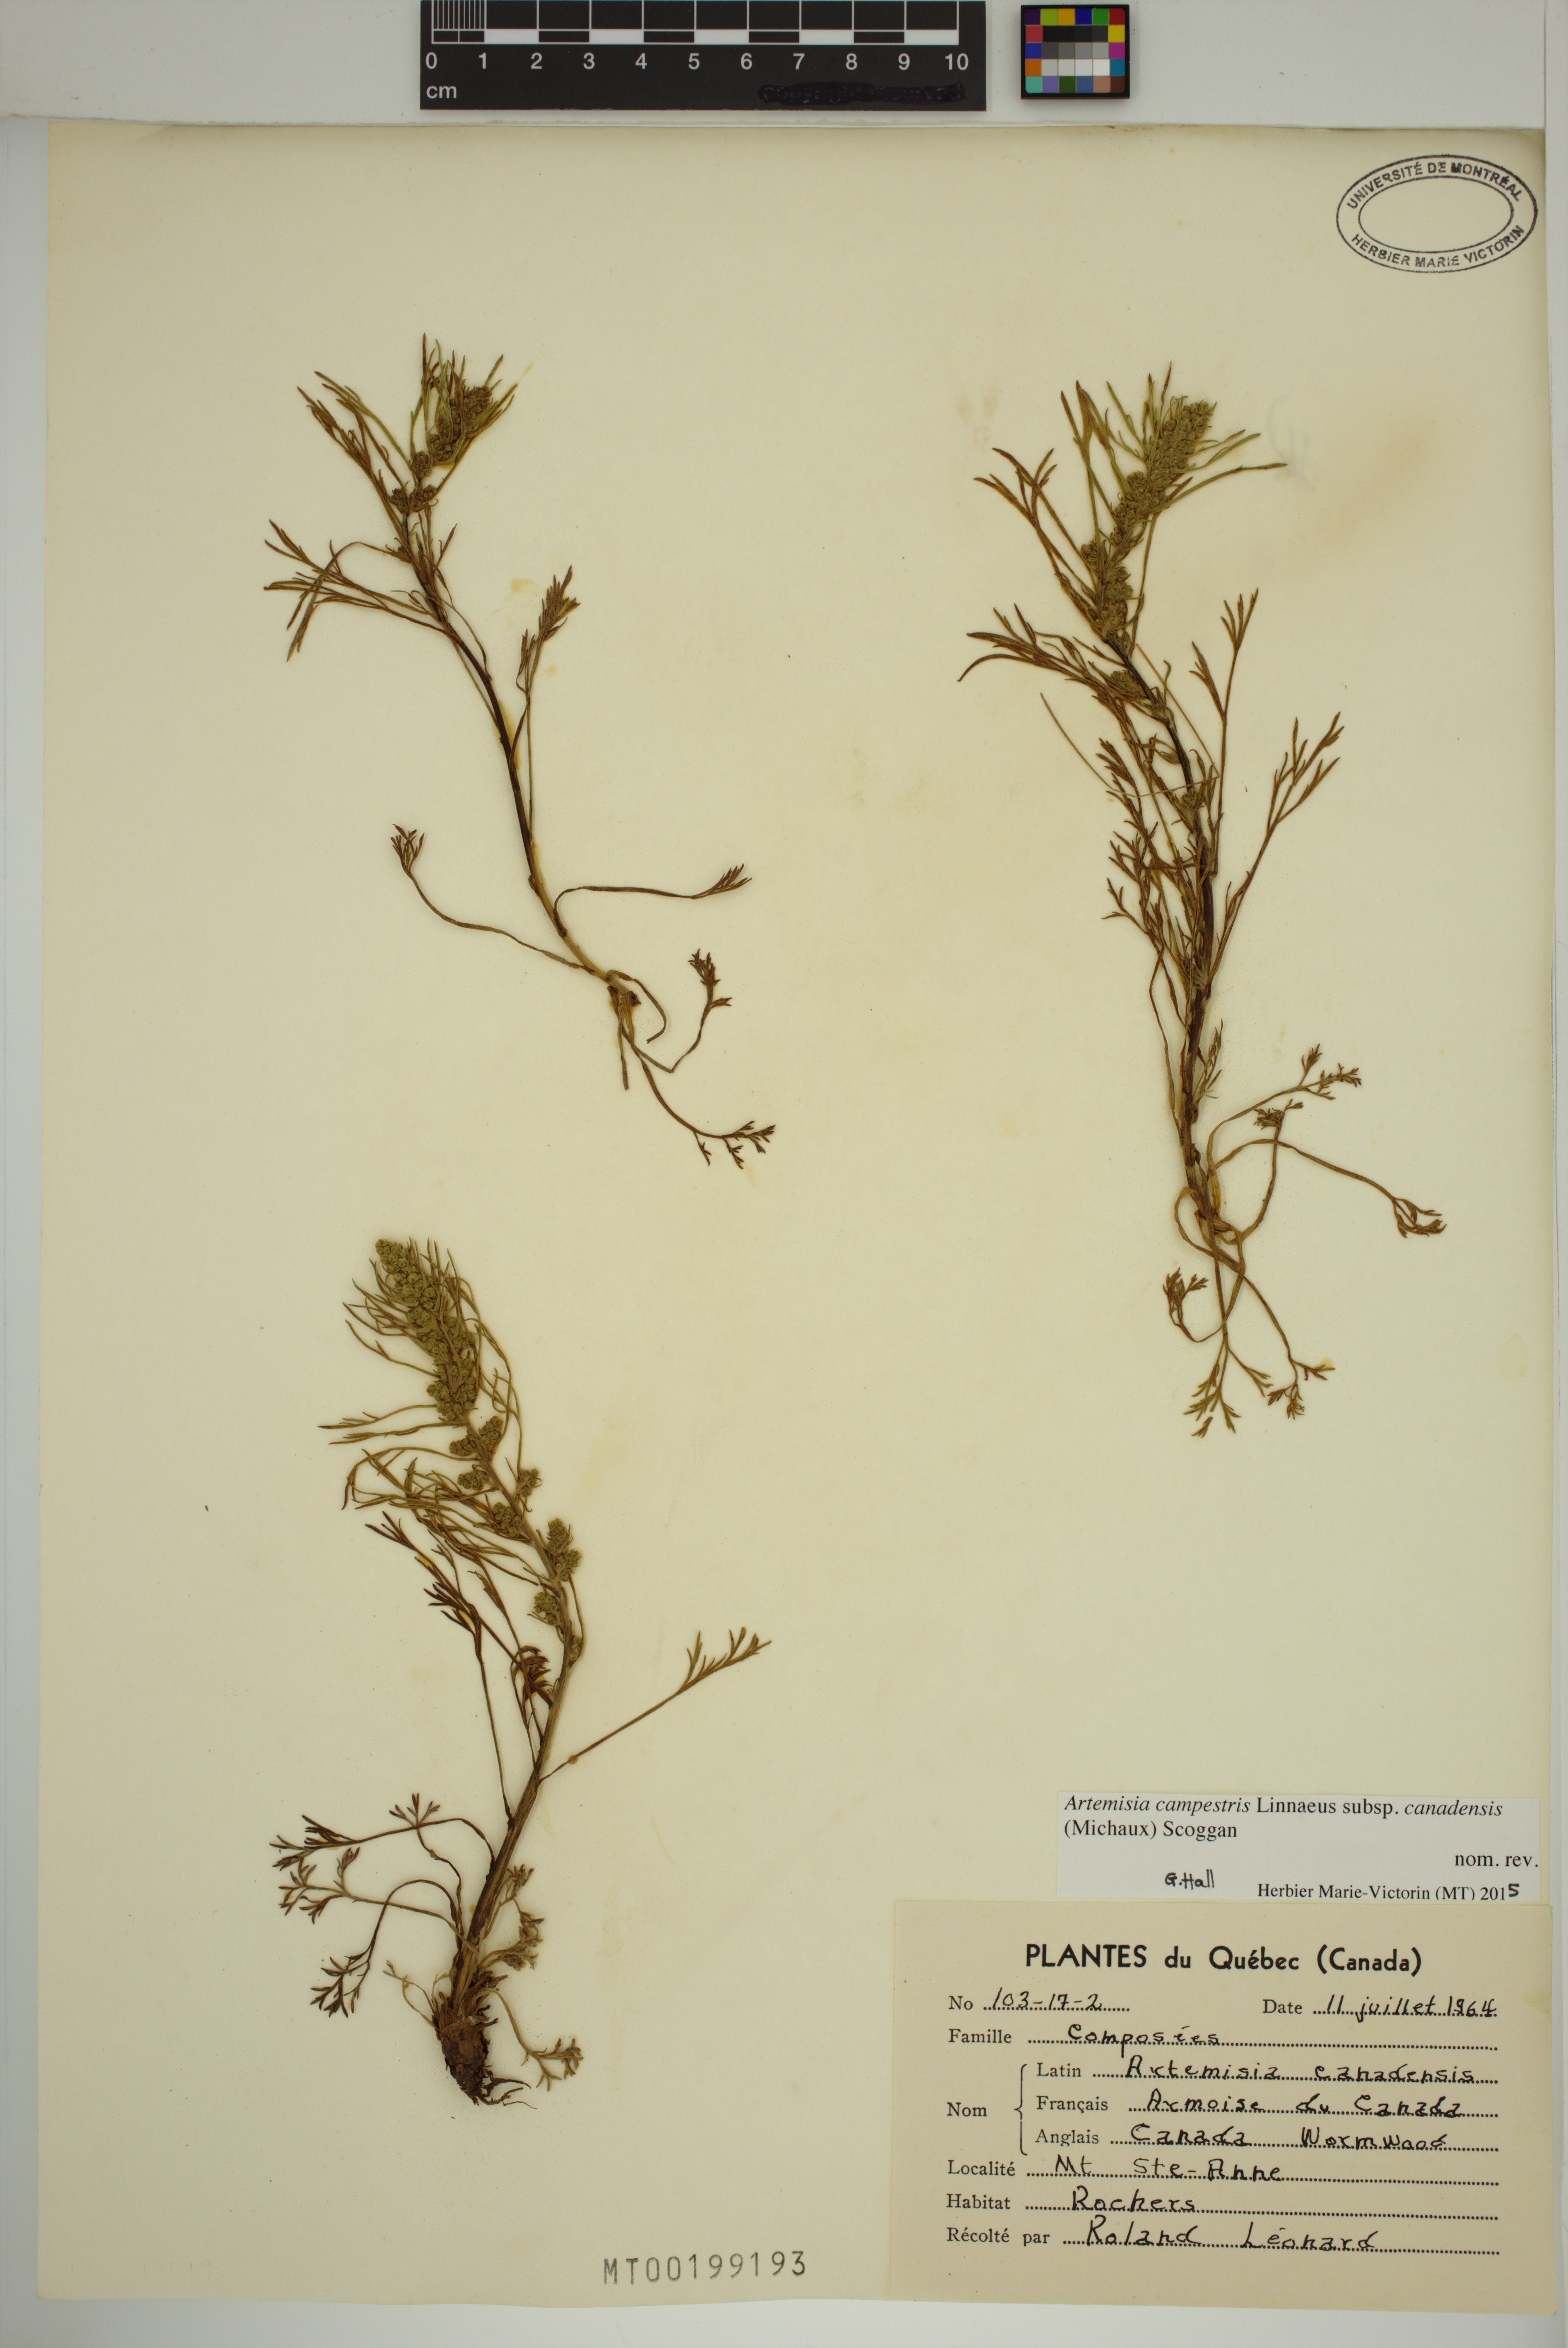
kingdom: Plantae
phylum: Tracheophyta
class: Magnoliopsida
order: Asterales
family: Asteraceae
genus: Artemisia
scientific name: Artemisia campestris
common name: Field wormwood
